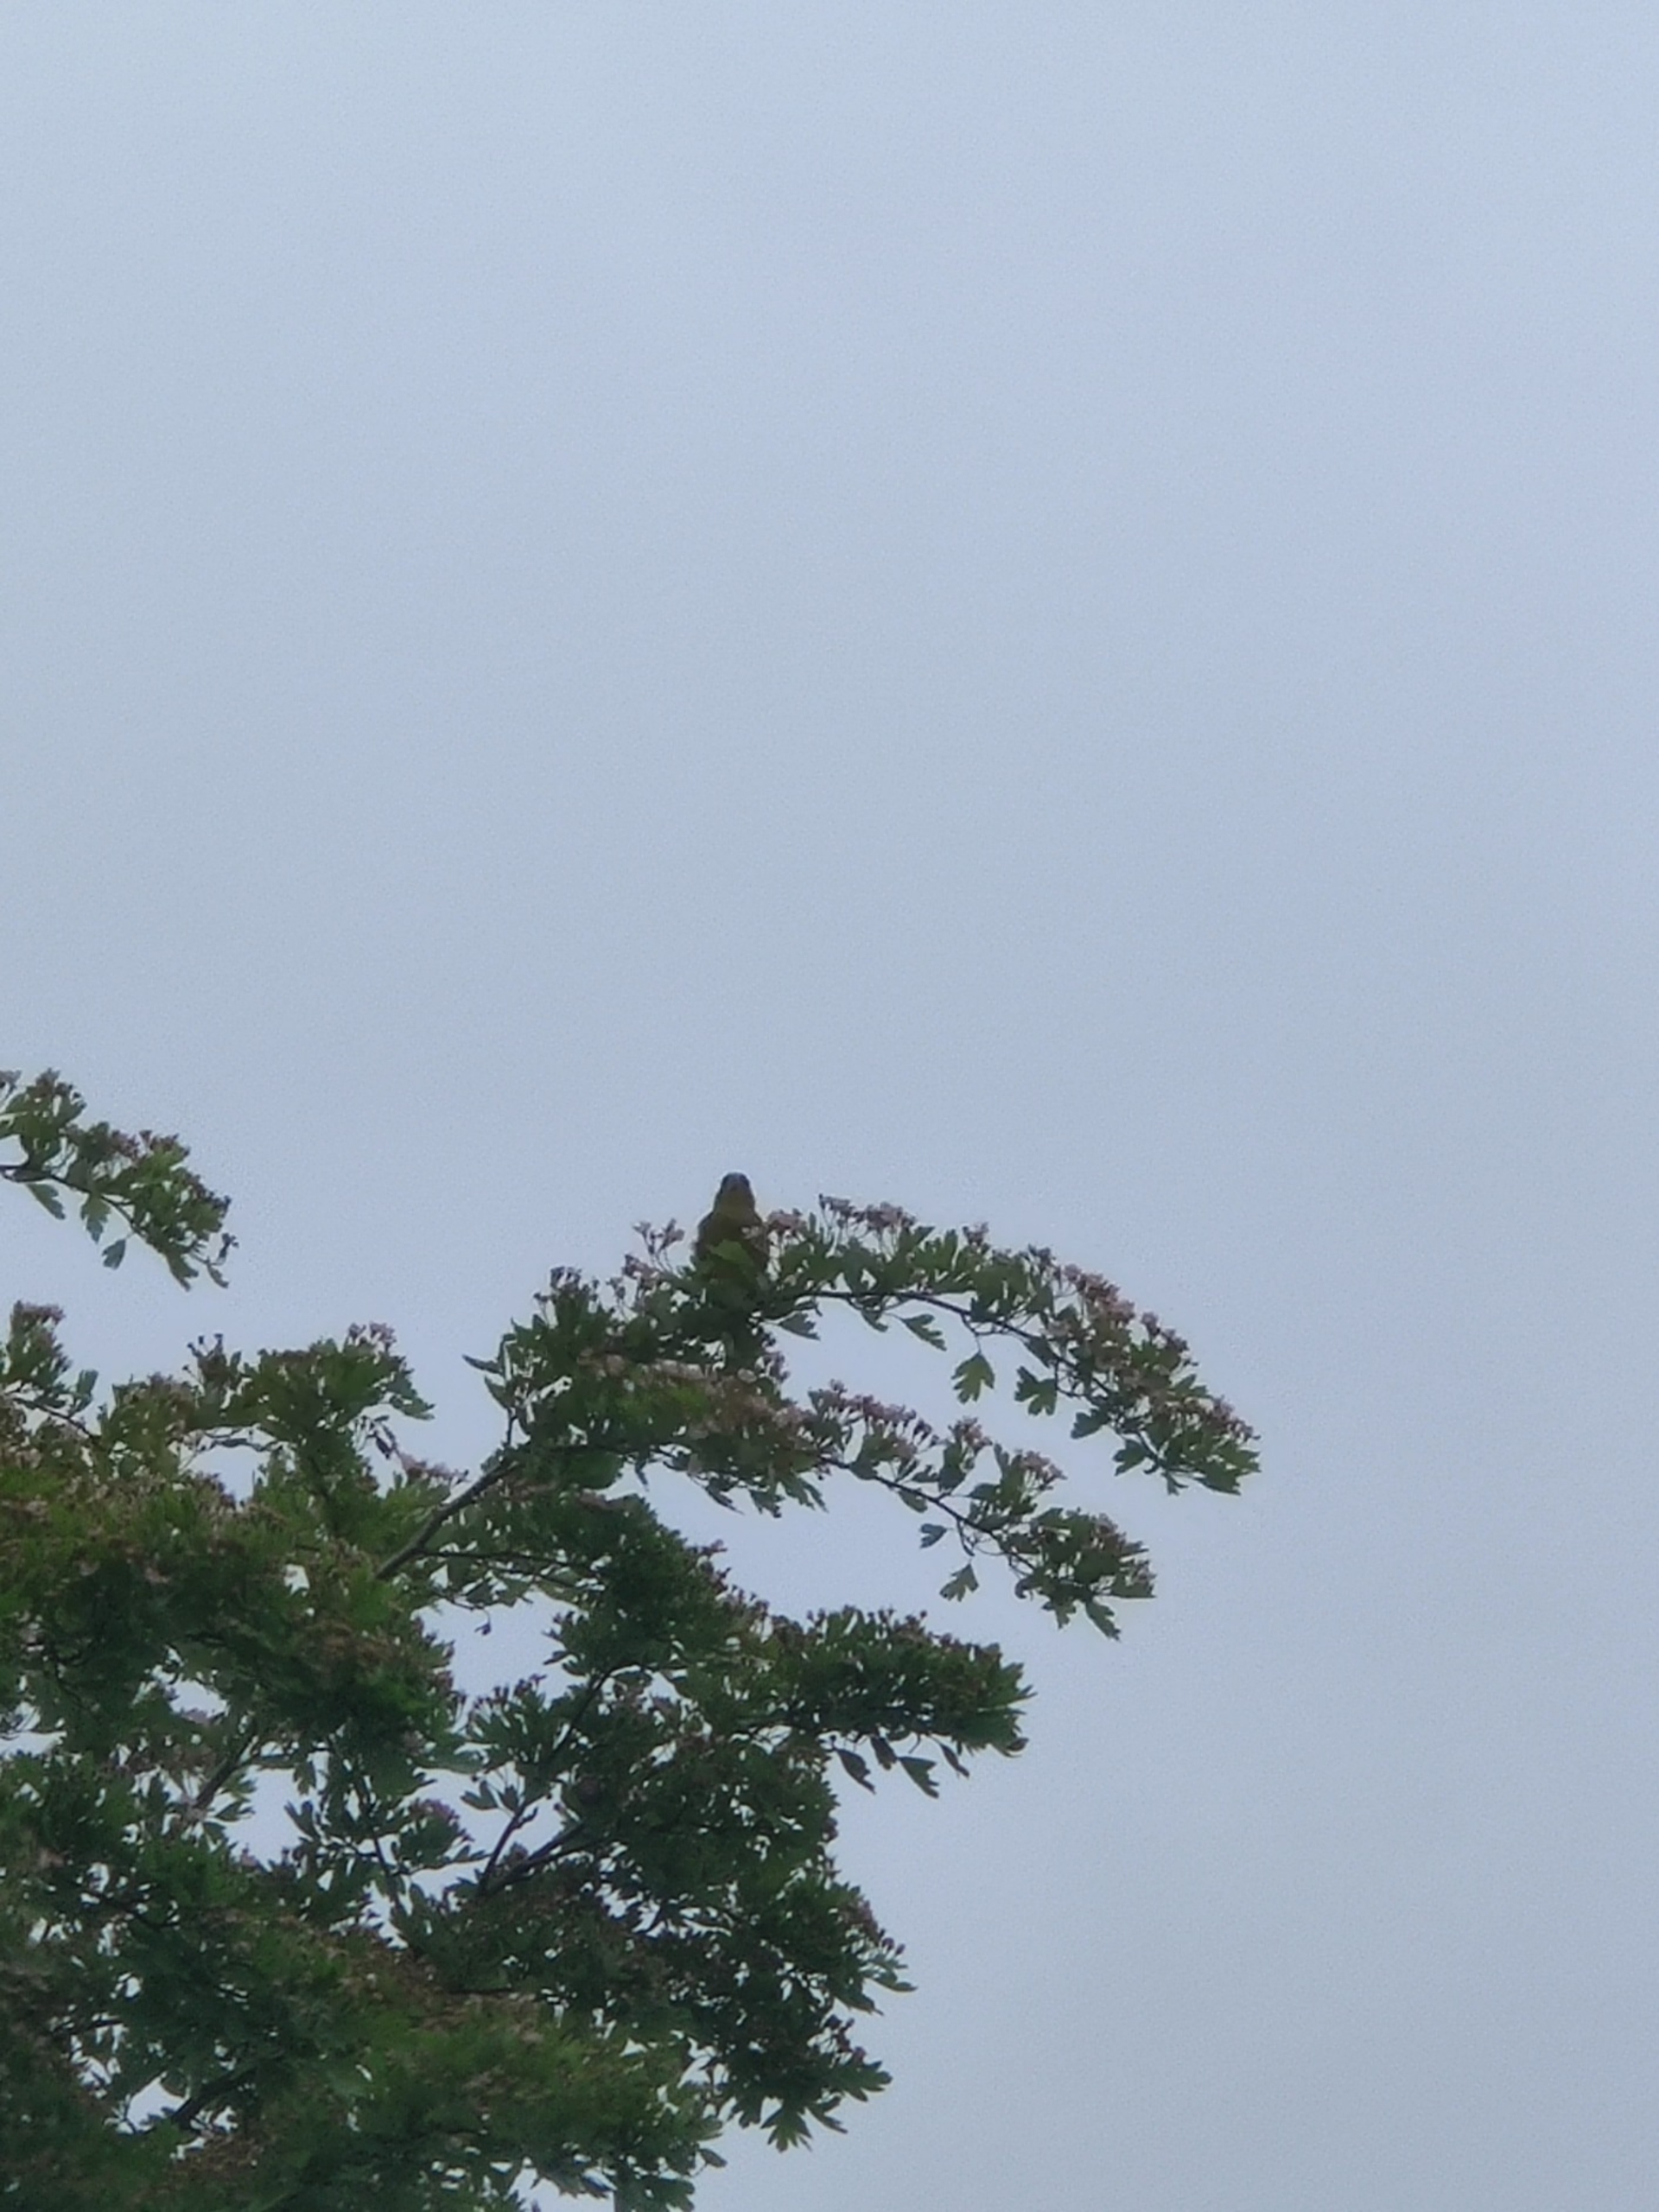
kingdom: Plantae
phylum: Tracheophyta
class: Liliopsida
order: Poales
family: Poaceae
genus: Chloris
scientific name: Chloris chloris
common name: Grønirisk
